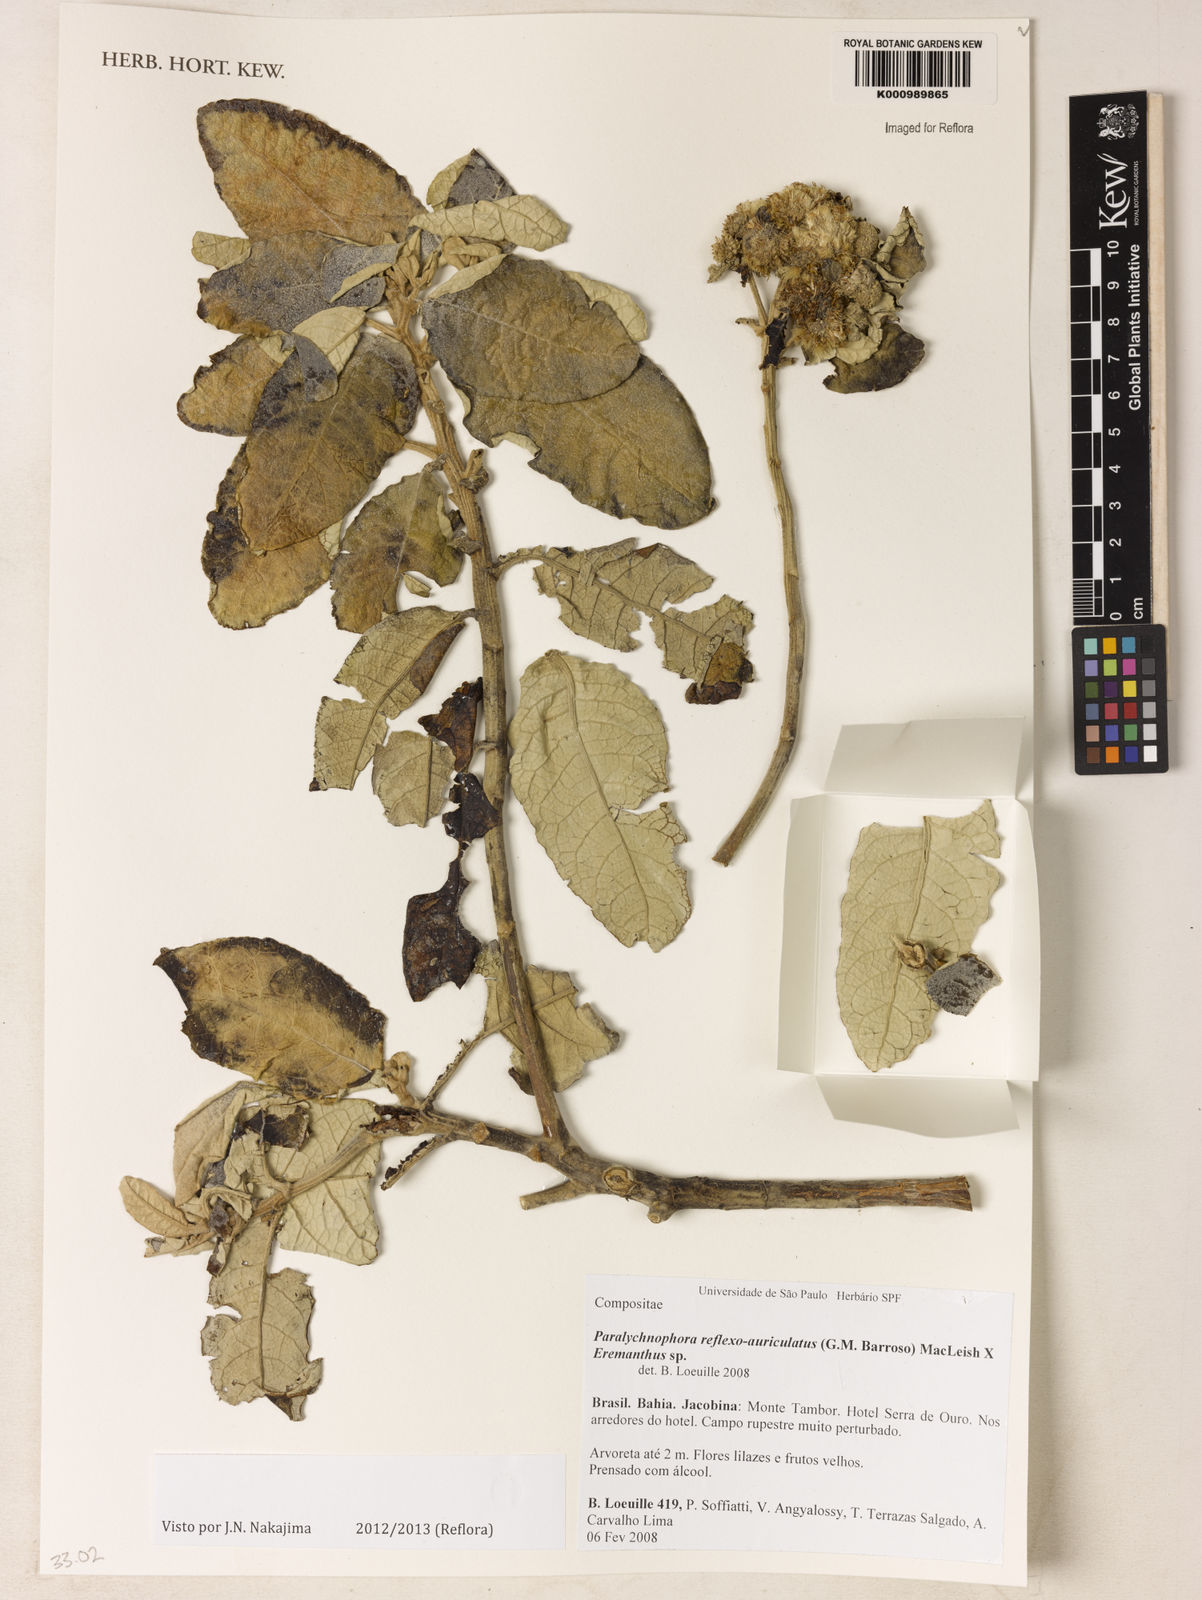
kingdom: Plantae
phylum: Tracheophyta
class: Magnoliopsida
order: Asterales
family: Asteraceae
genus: Paralychnophora
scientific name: Paralychnophora reflexoauriculata
